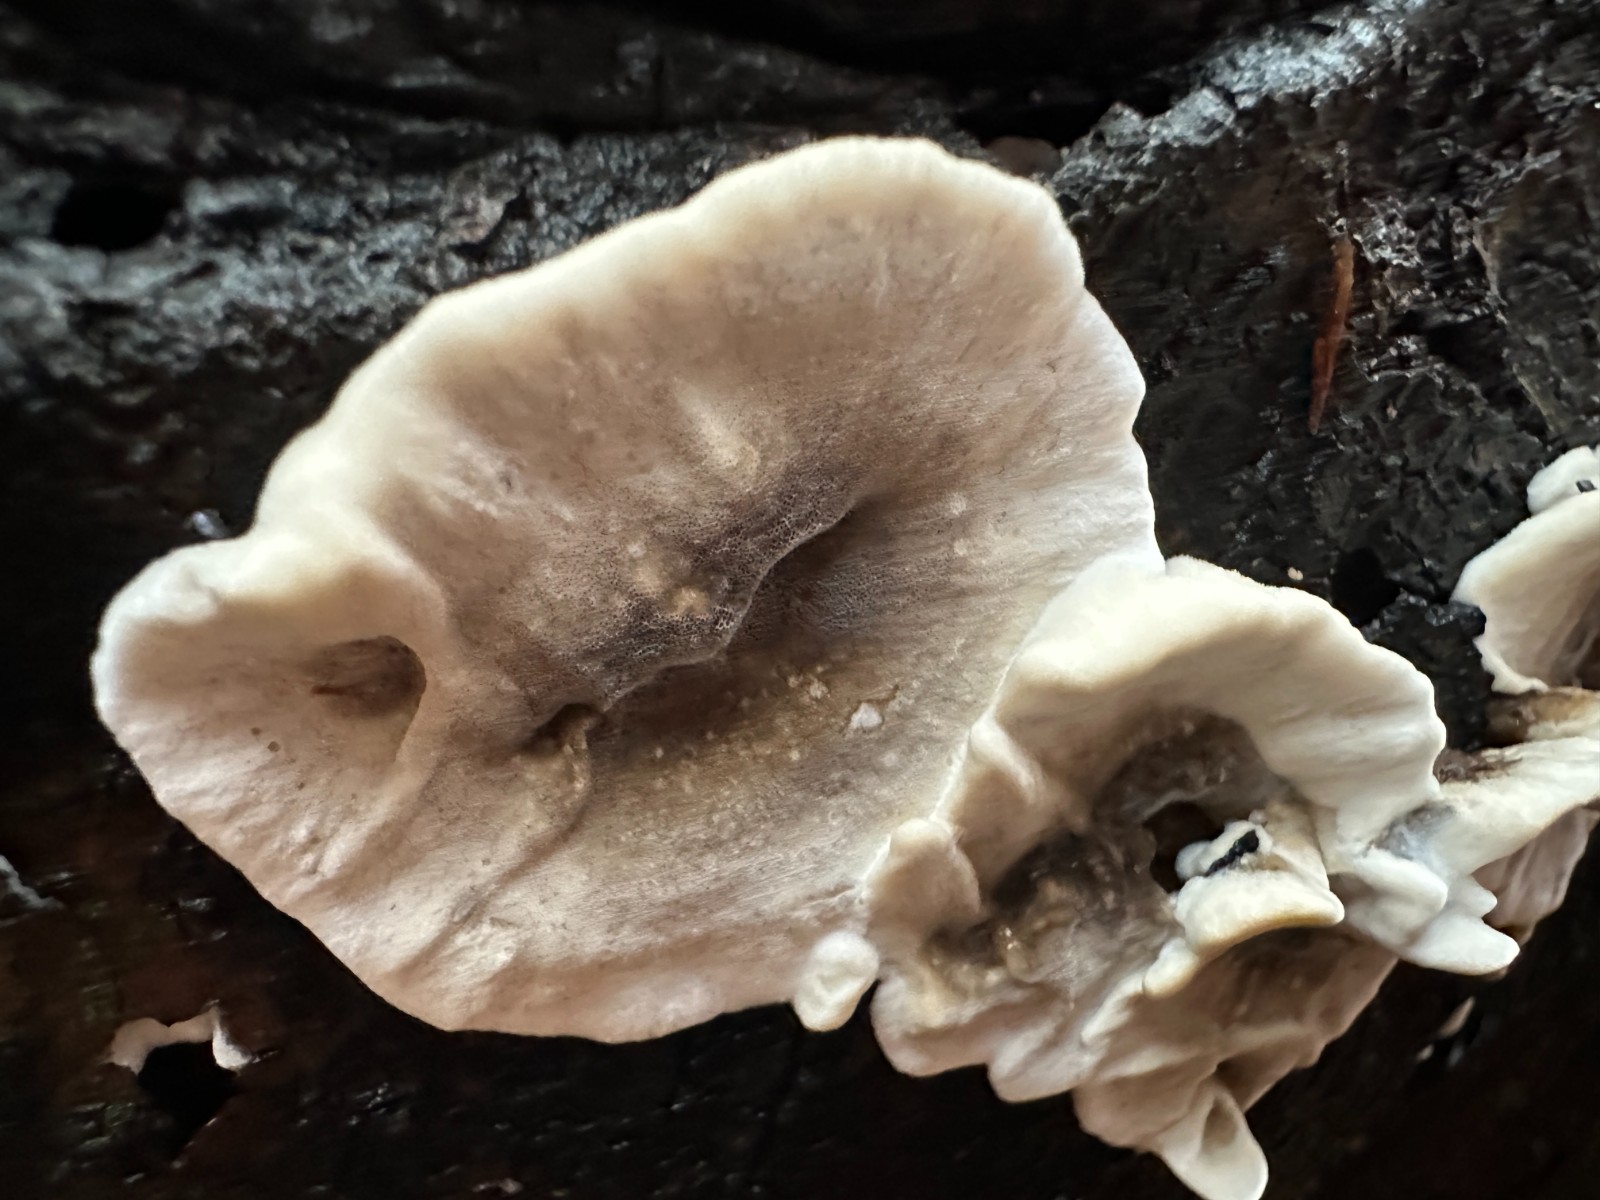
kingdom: Fungi
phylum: Basidiomycota
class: Agaricomycetes
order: Polyporales
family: Phanerochaetaceae
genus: Bjerkandera
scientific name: Bjerkandera adusta
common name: sveden sodporesvamp
